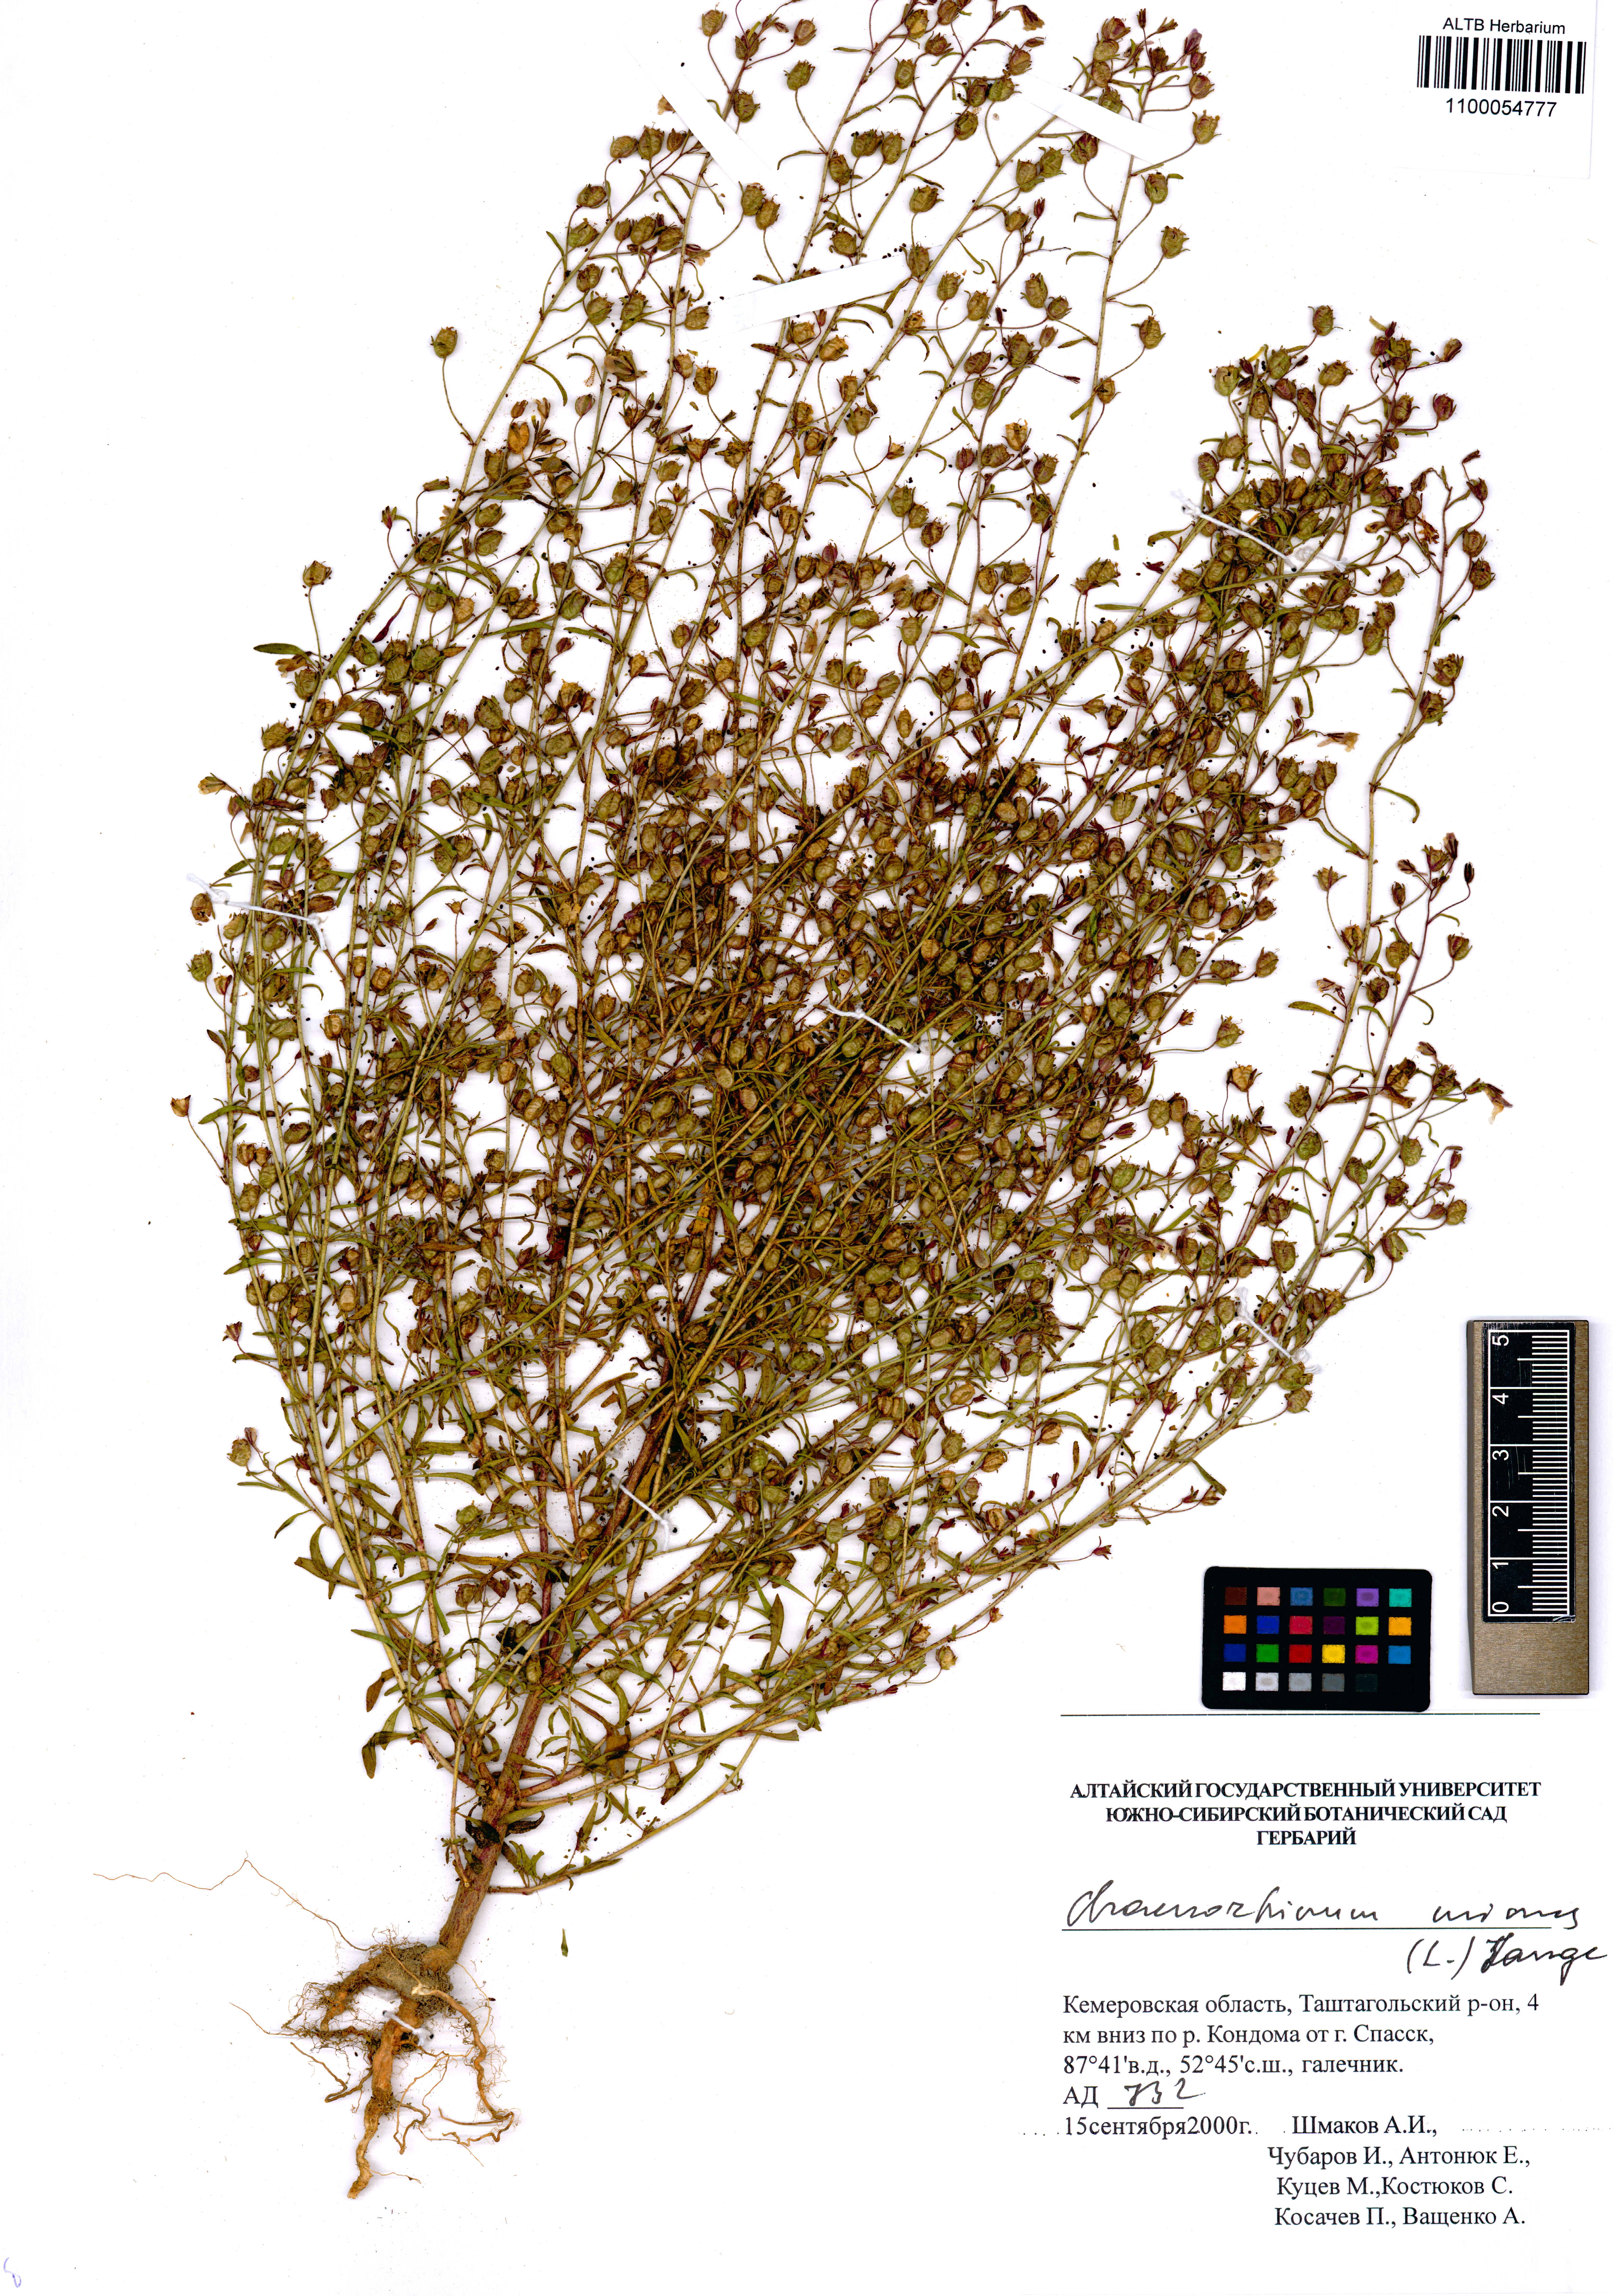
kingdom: Plantae
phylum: Tracheophyta
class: Magnoliopsida
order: Lamiales
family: Plantaginaceae
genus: Chaenorhinum
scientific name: Chaenorhinum minus
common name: Dwarf snapdragon
